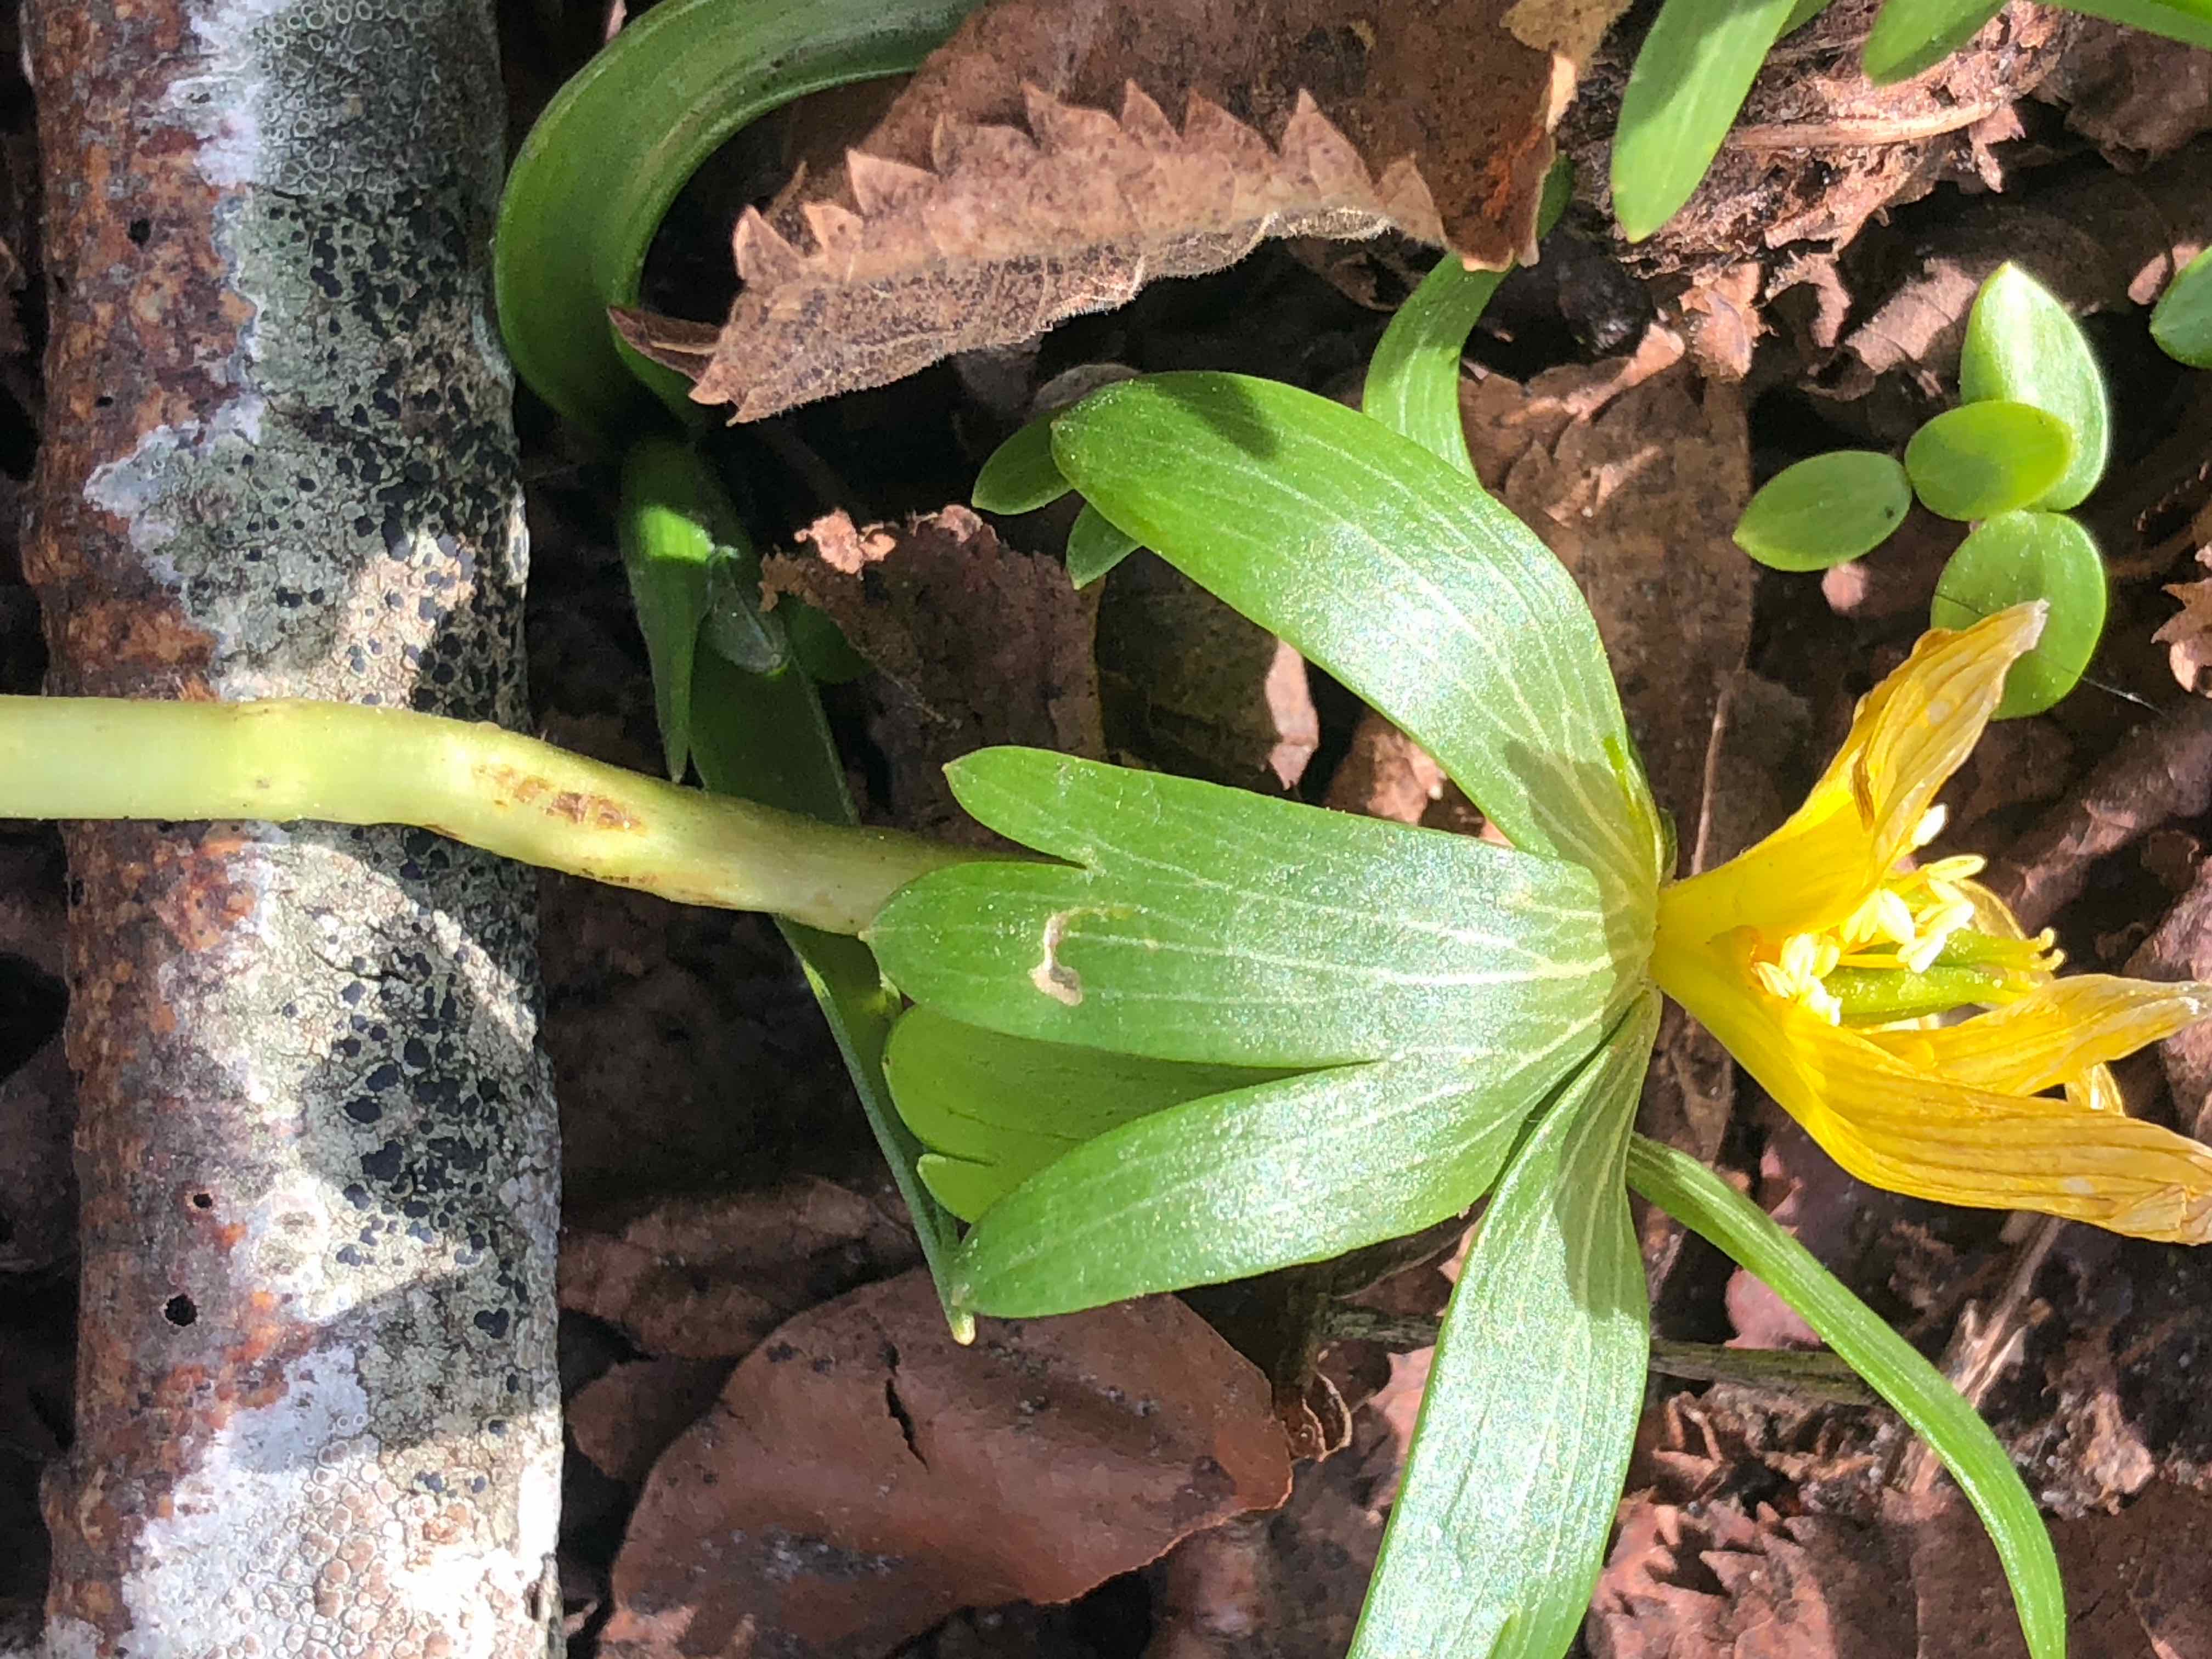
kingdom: Fungi
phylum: Basidiomycota
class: Ustilaginomycetes
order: Urocystidales
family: Urocystidaceae
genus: Urocystis
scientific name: Urocystis eranthidis
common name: erantis-brand
